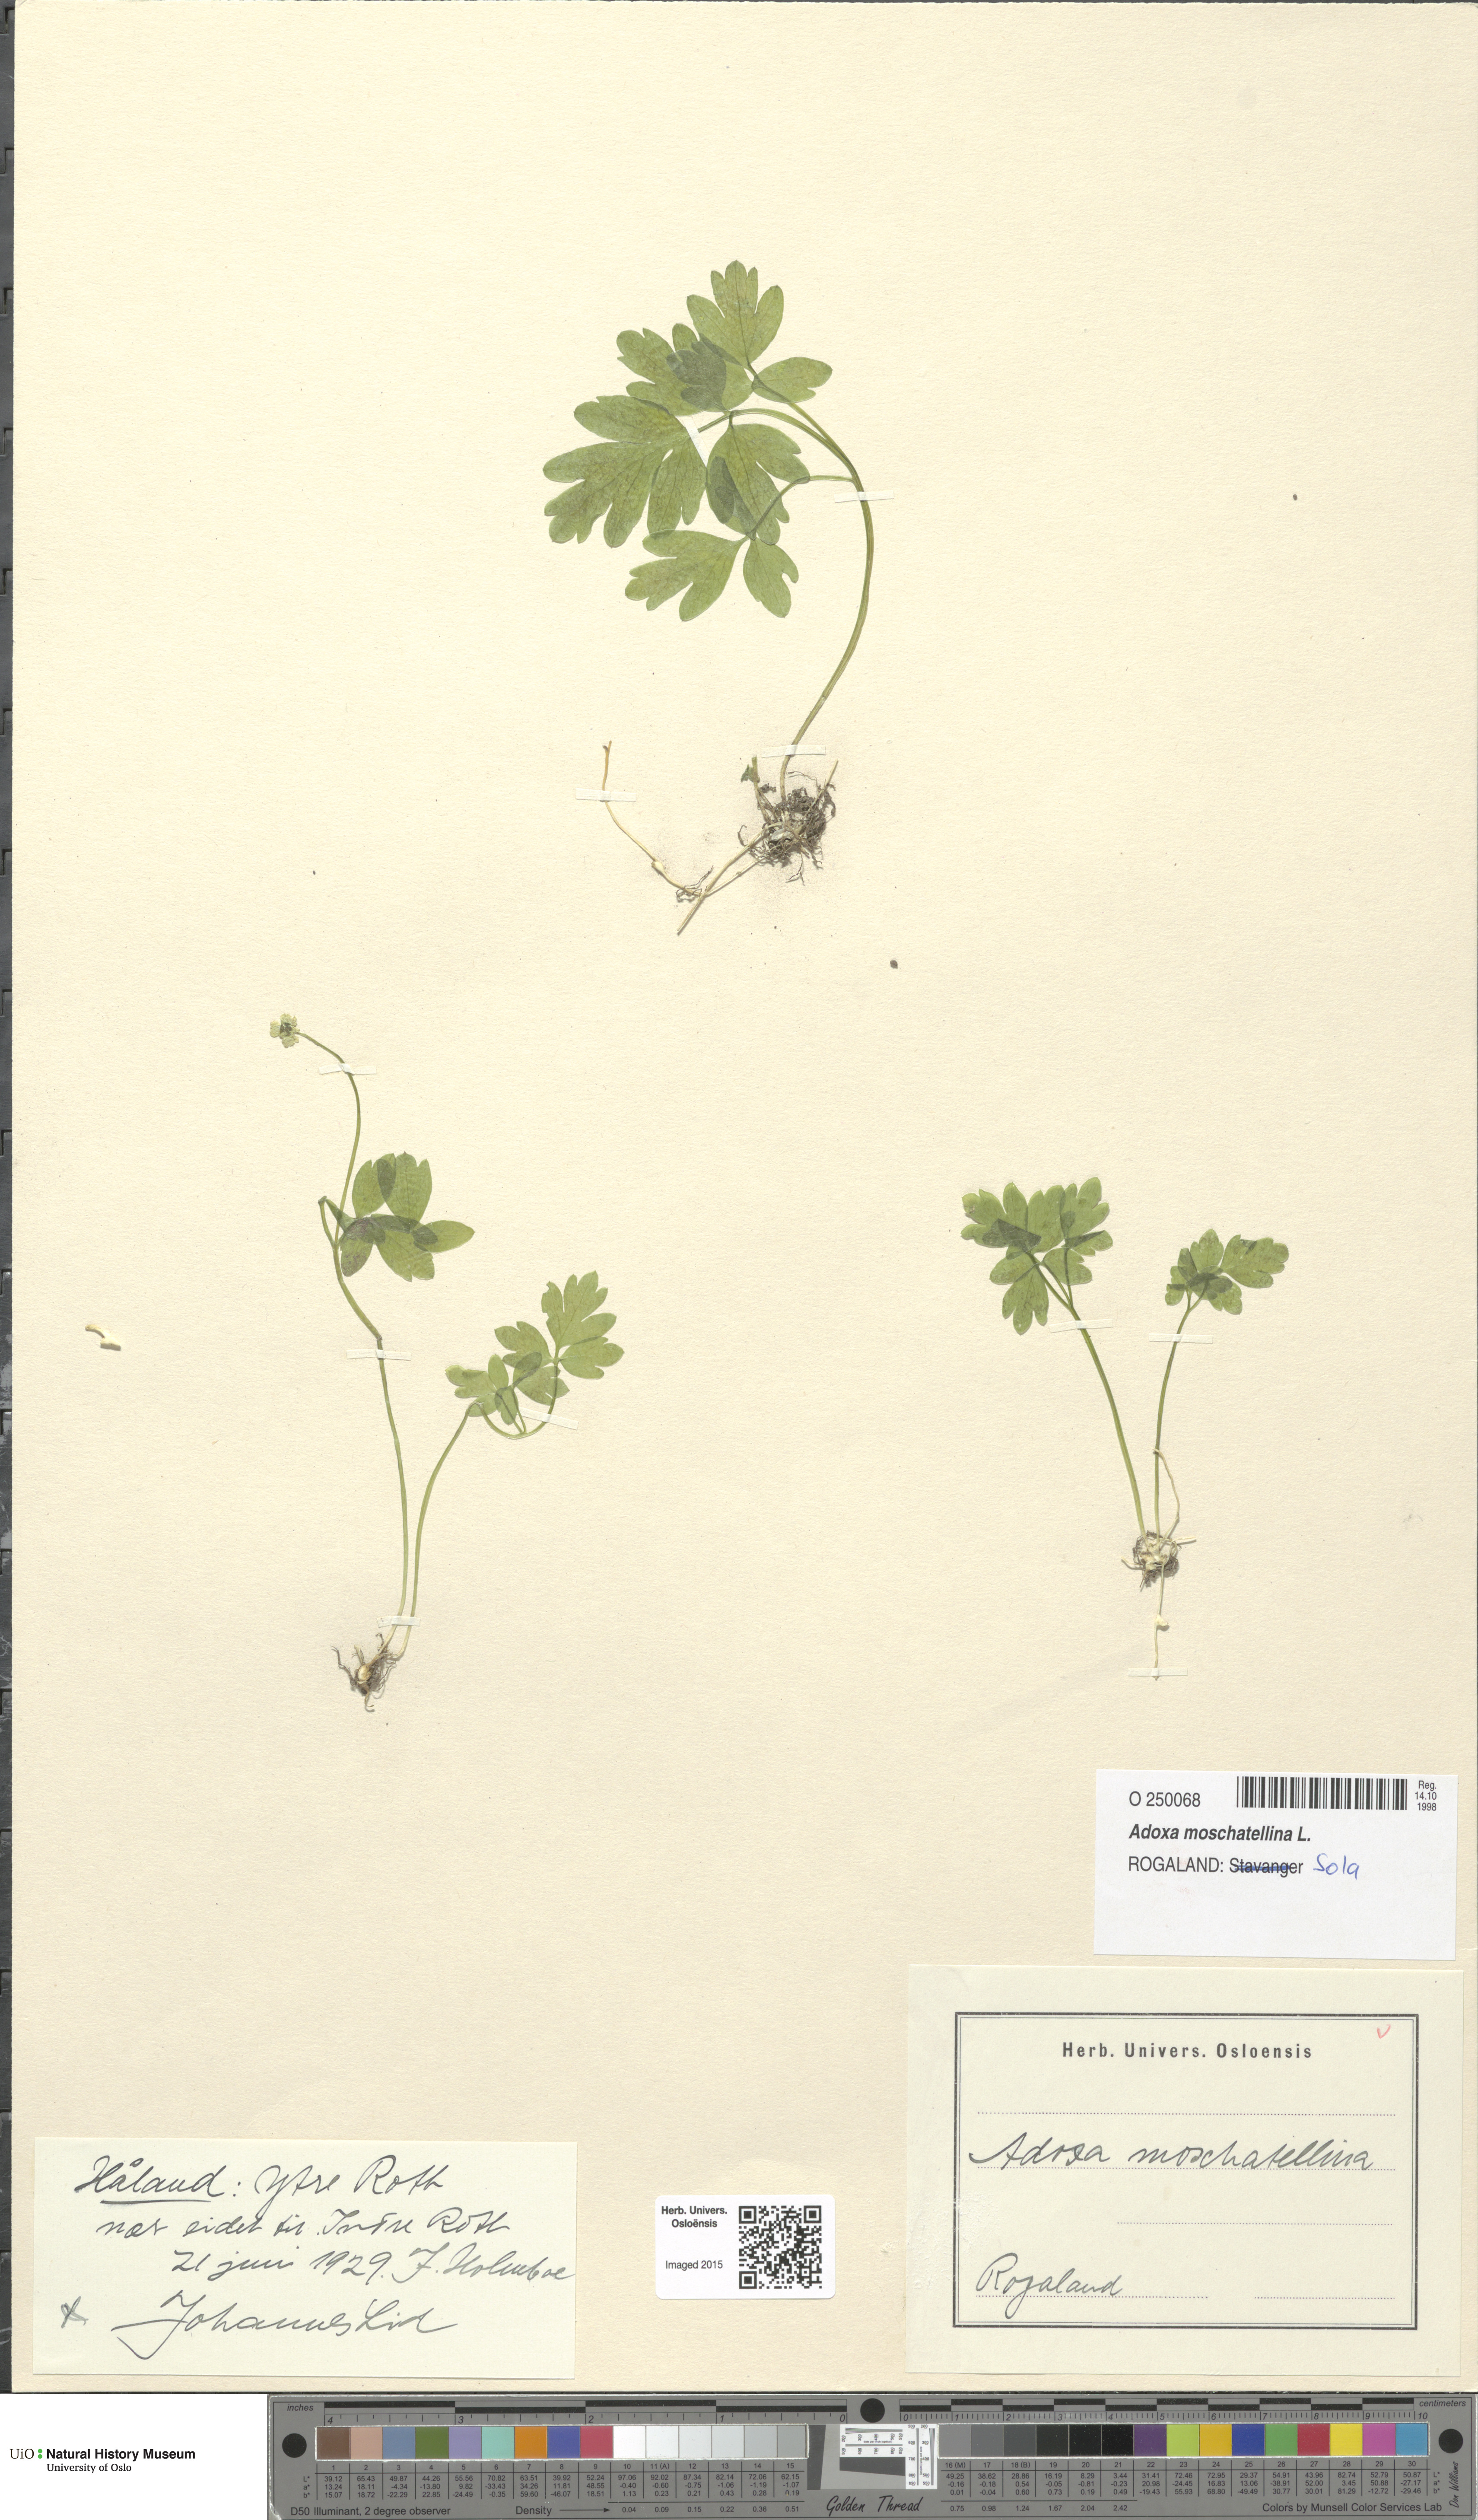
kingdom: Plantae
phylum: Tracheophyta
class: Magnoliopsida
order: Dipsacales
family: Viburnaceae
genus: Adoxa
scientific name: Adoxa moschatellina
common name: Moschatel
